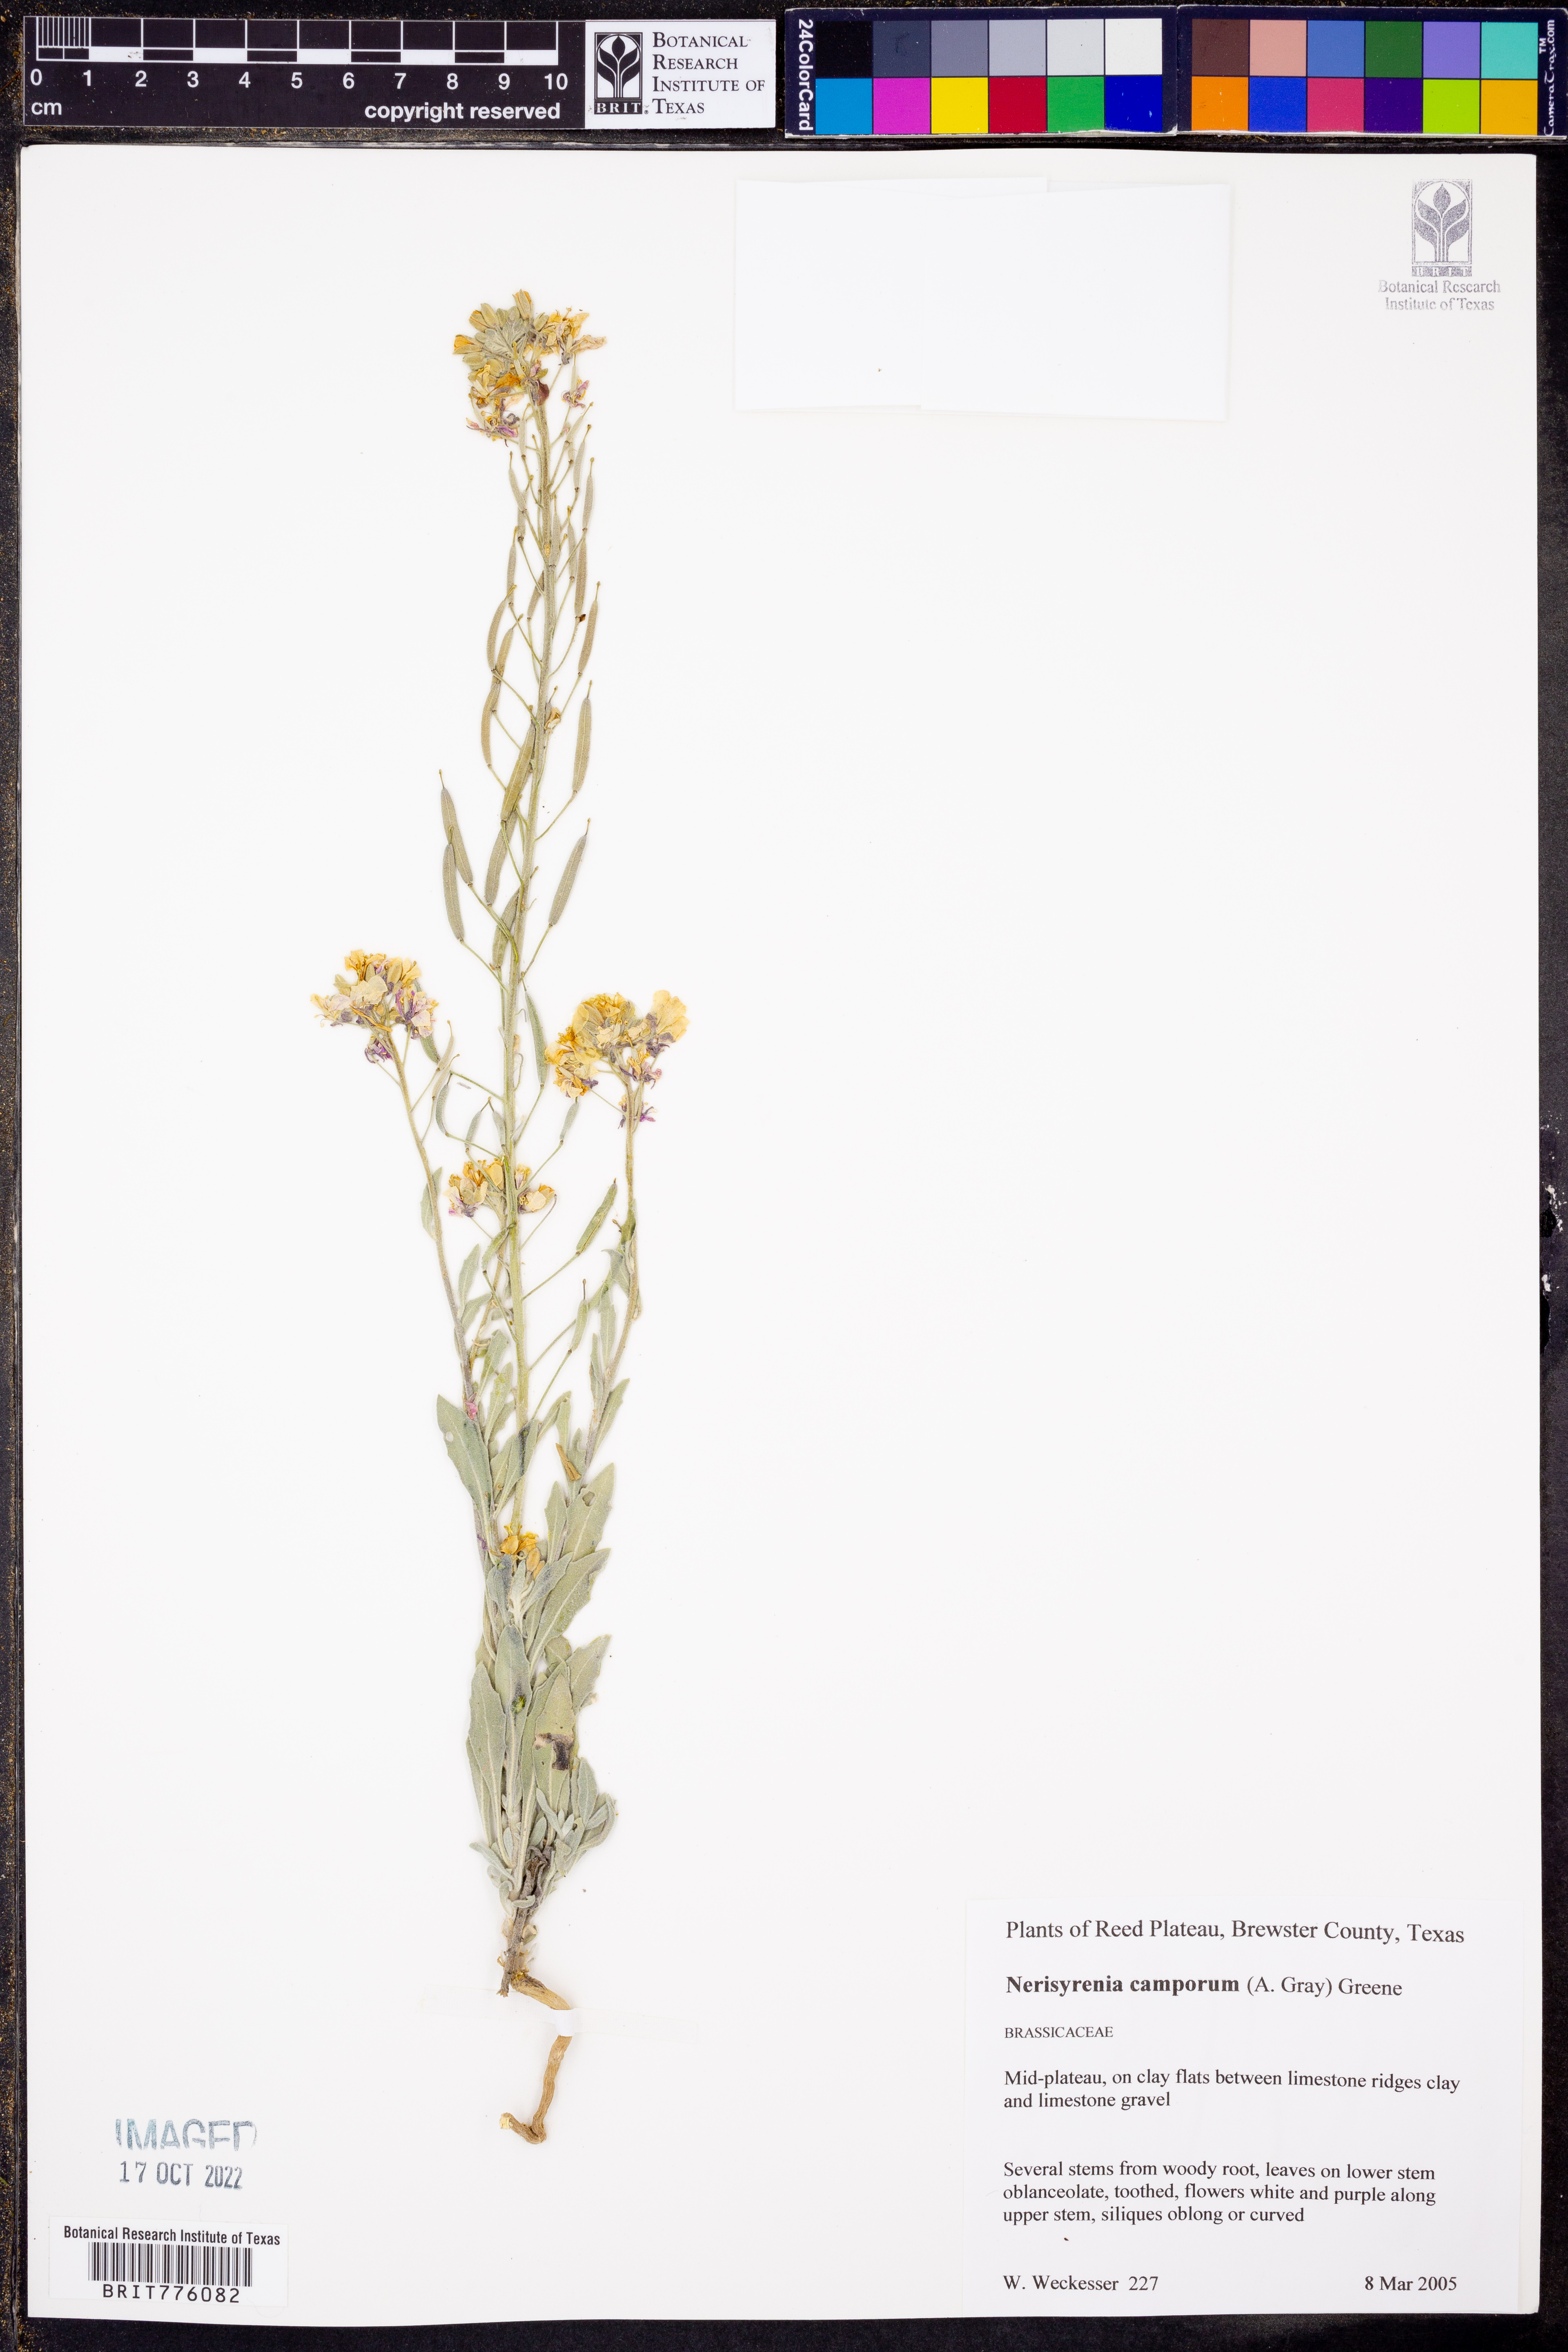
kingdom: Plantae
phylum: Tracheophyta
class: Magnoliopsida
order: Brassicales
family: Brassicaceae
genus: Nerisyrenia
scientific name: Nerisyrenia camporum
